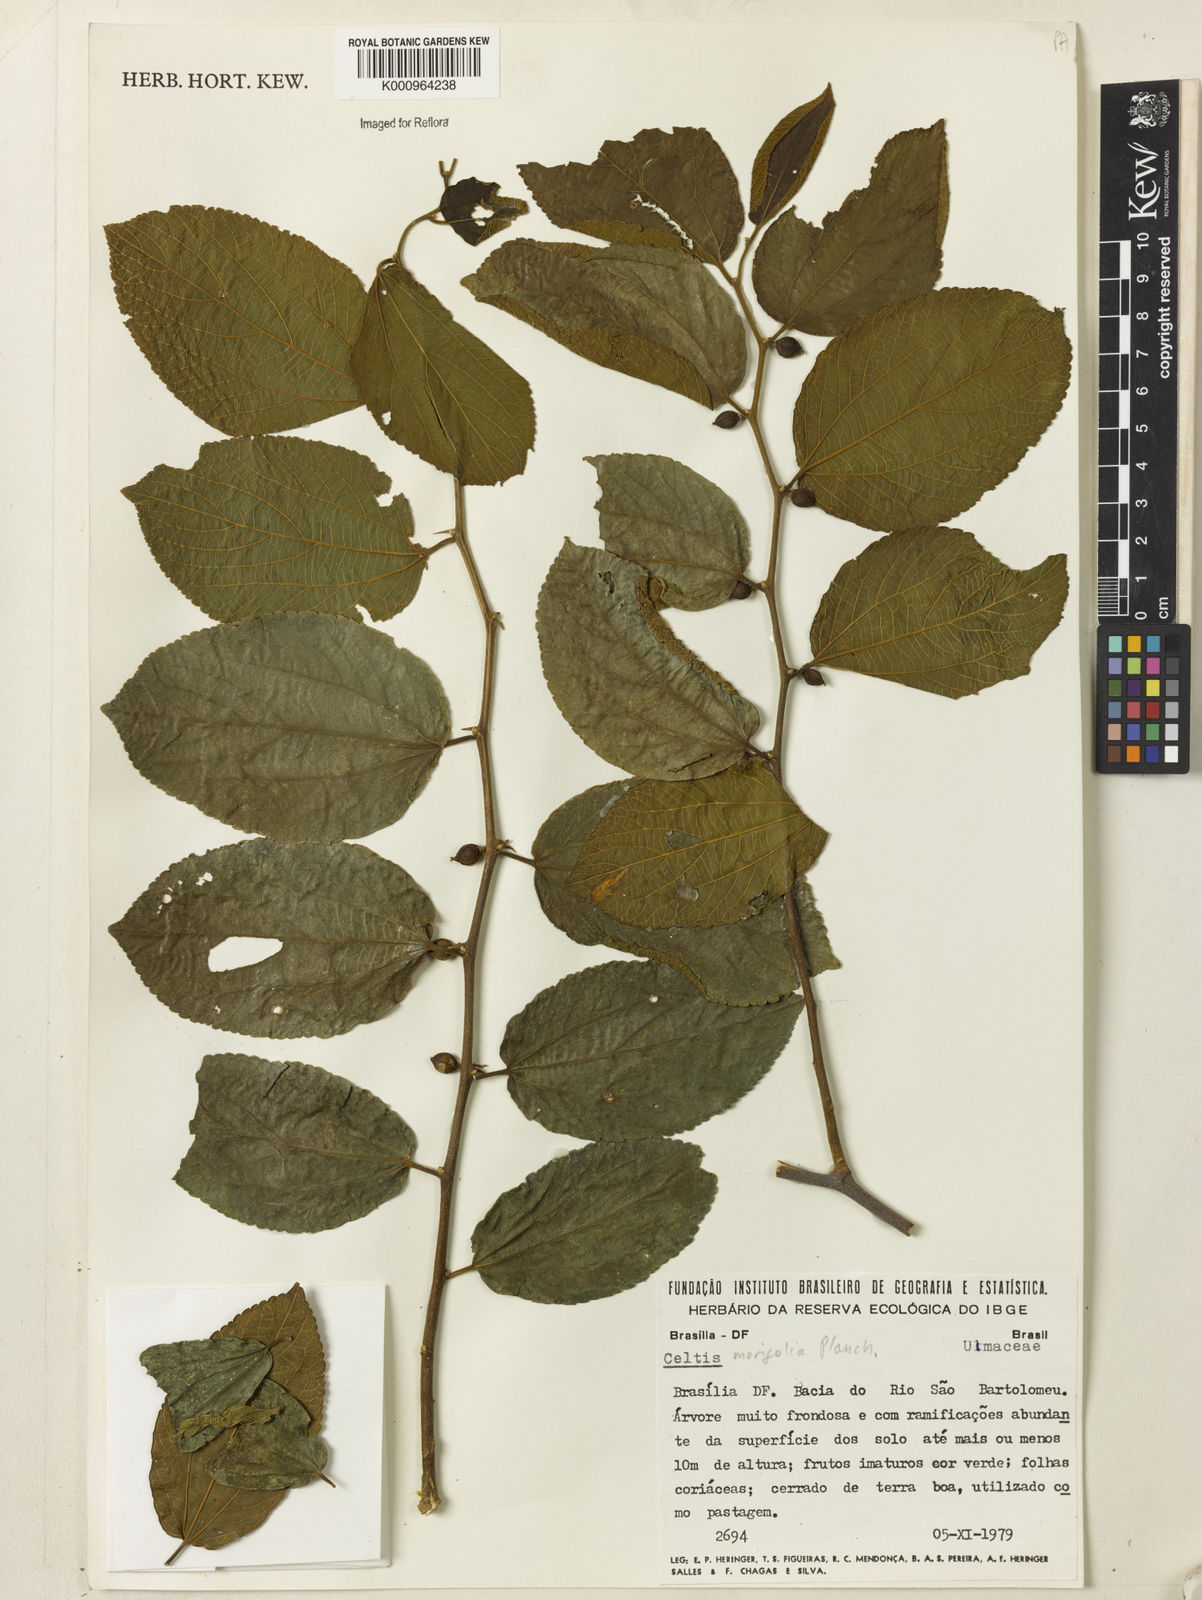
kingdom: Plantae
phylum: Tracheophyta
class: Magnoliopsida
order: Rosales
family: Cannabaceae
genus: Celtis
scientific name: Celtis iguanaea
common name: Iguana hackberry
